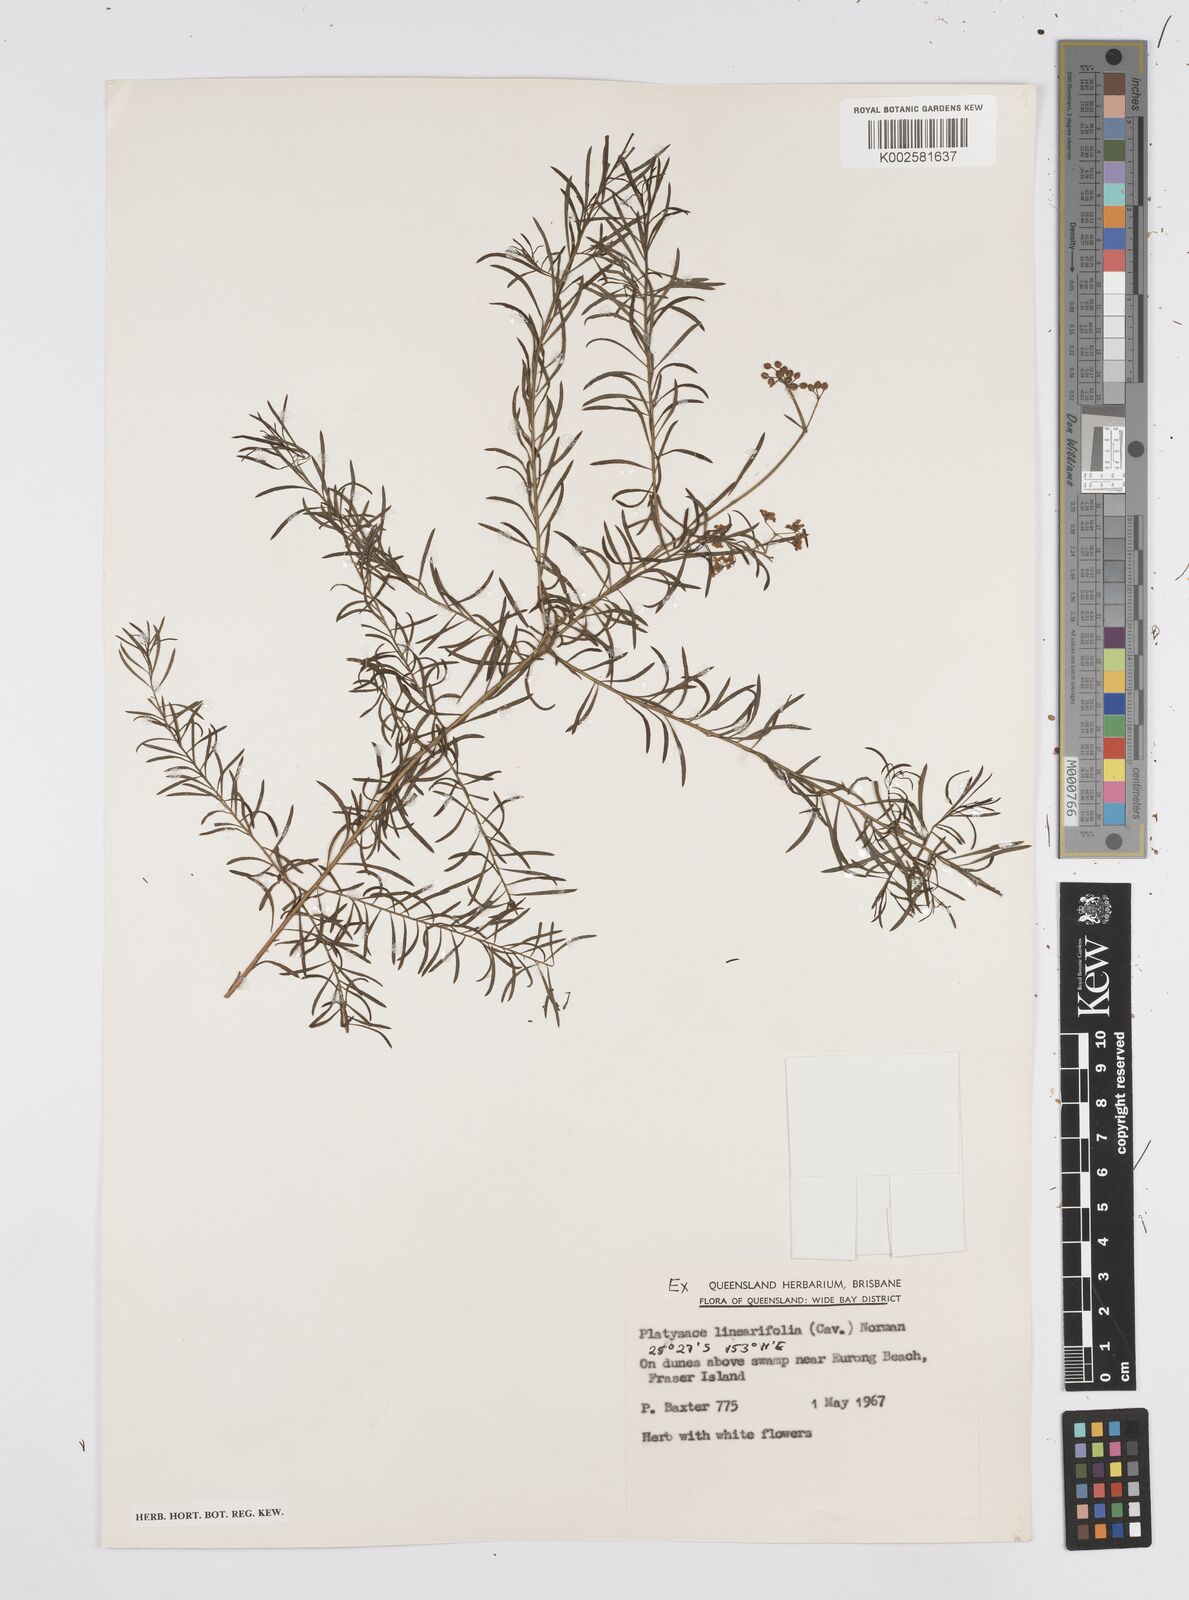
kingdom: Plantae
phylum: Tracheophyta
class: Magnoliopsida
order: Apiales
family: Apiaceae
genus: Platysace
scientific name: Platysace linearifolia
